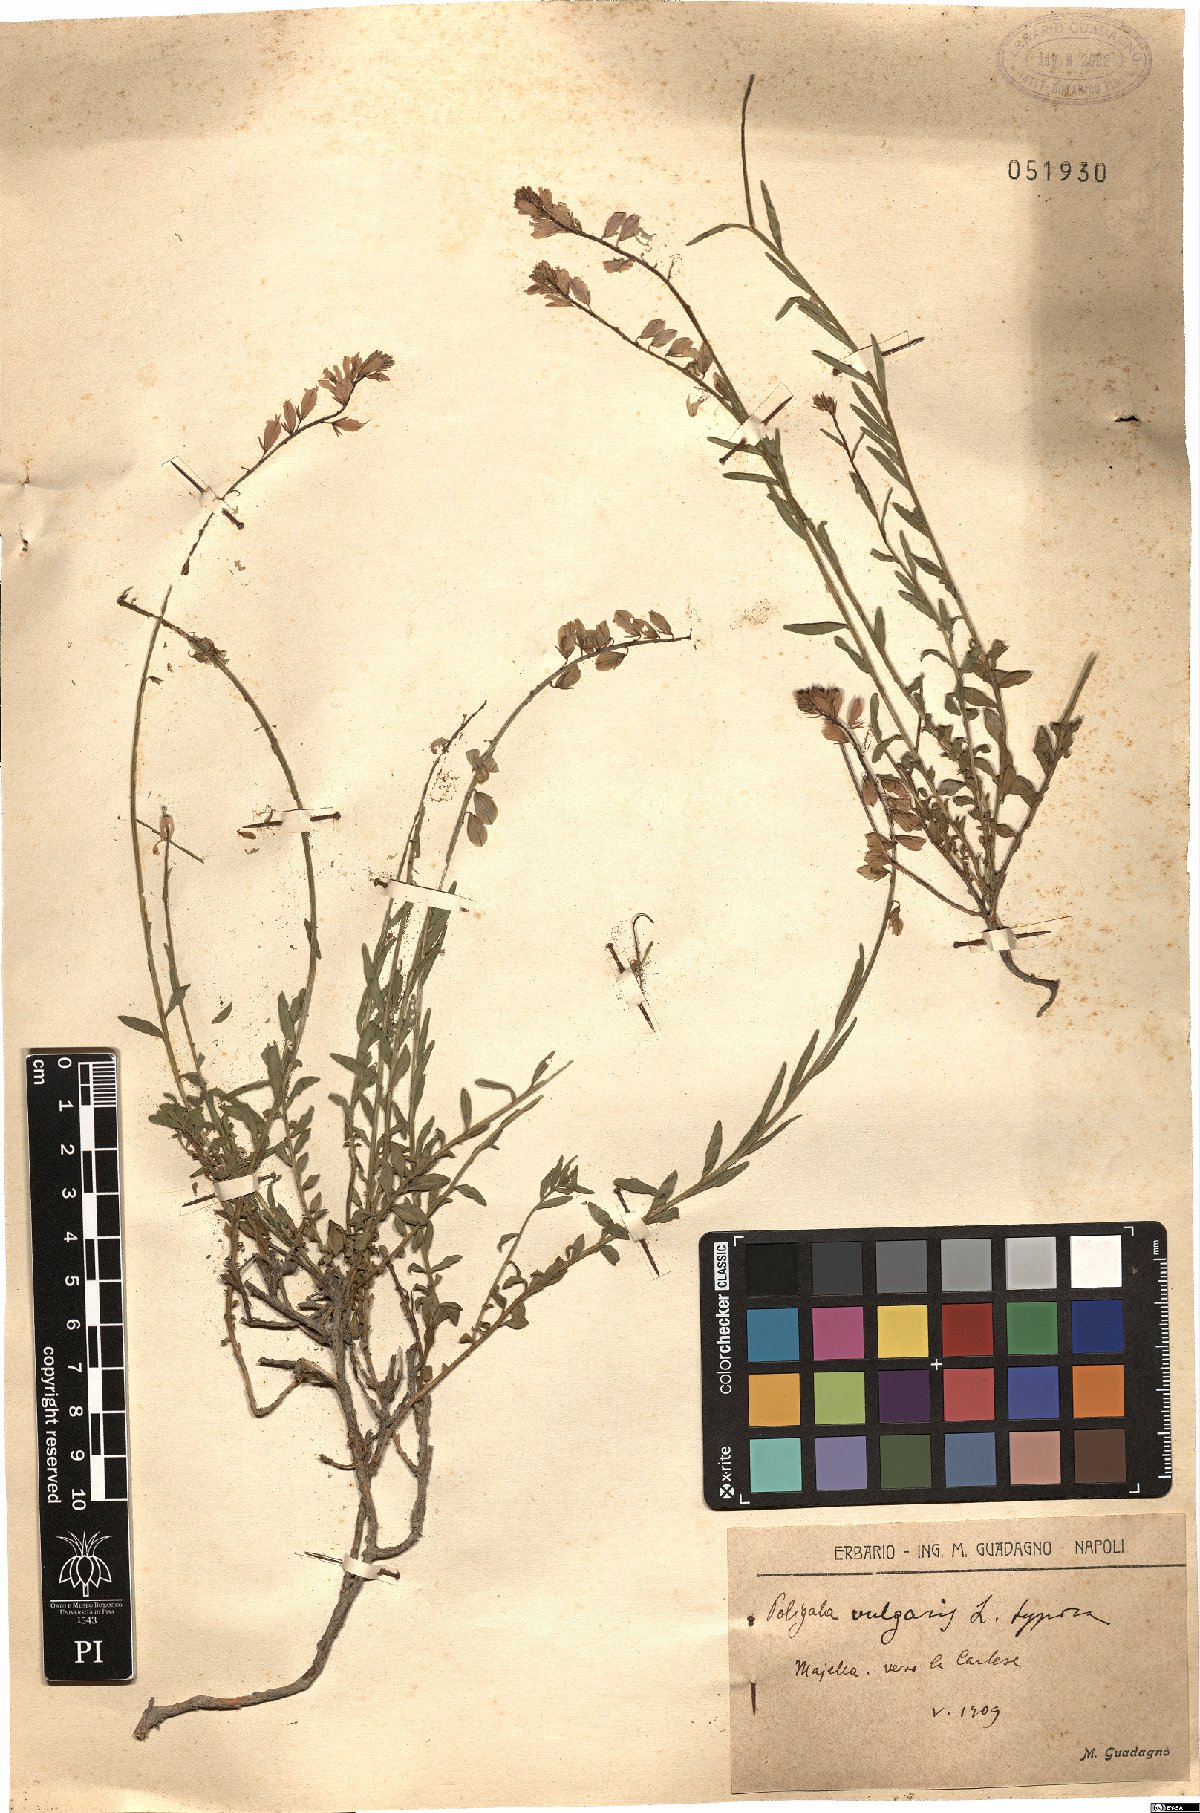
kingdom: Plantae
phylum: Tracheophyta
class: Magnoliopsida
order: Fabales
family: Polygalaceae
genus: Polygala
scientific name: Polygala vulgaris
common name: Common milkwort
